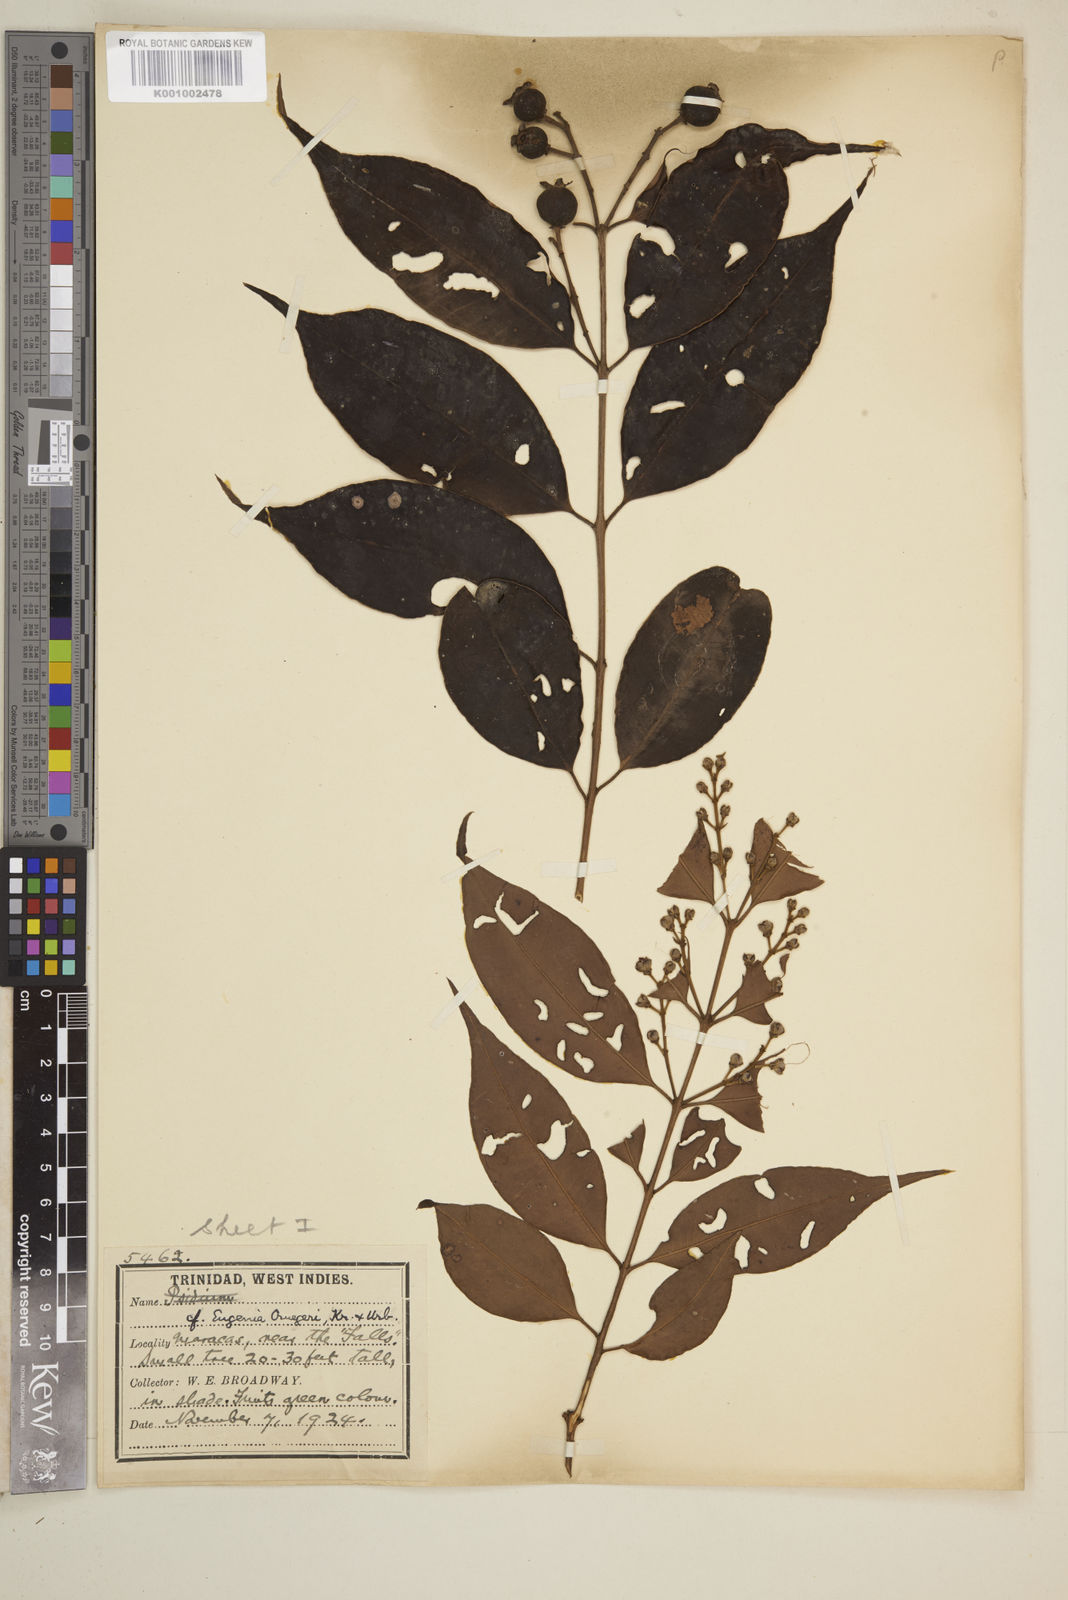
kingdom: Plantae
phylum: Tracheophyta
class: Magnoliopsida
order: Myrtales
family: Myrtaceae
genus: Eugenia
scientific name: Eugenia limbosa
